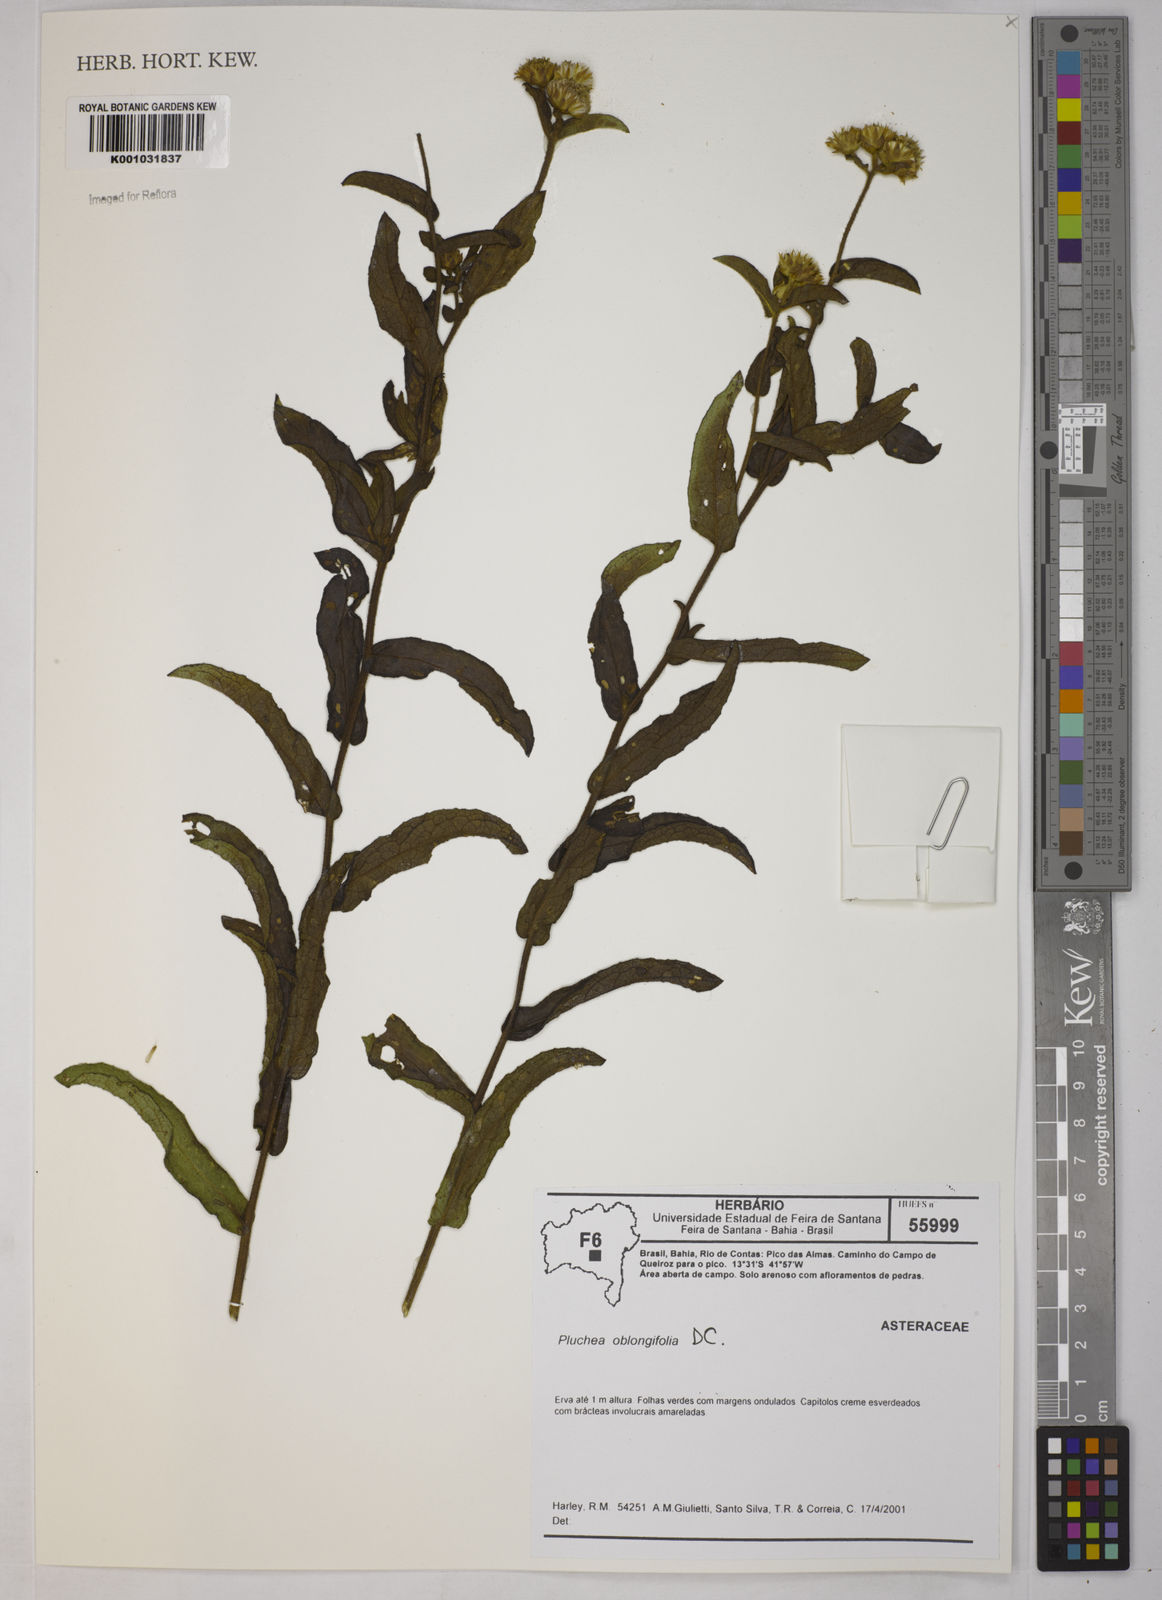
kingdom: Plantae
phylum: Tracheophyta
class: Magnoliopsida
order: Asterales
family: Asteraceae
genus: Pluchea
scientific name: Pluchea oblongifolia
